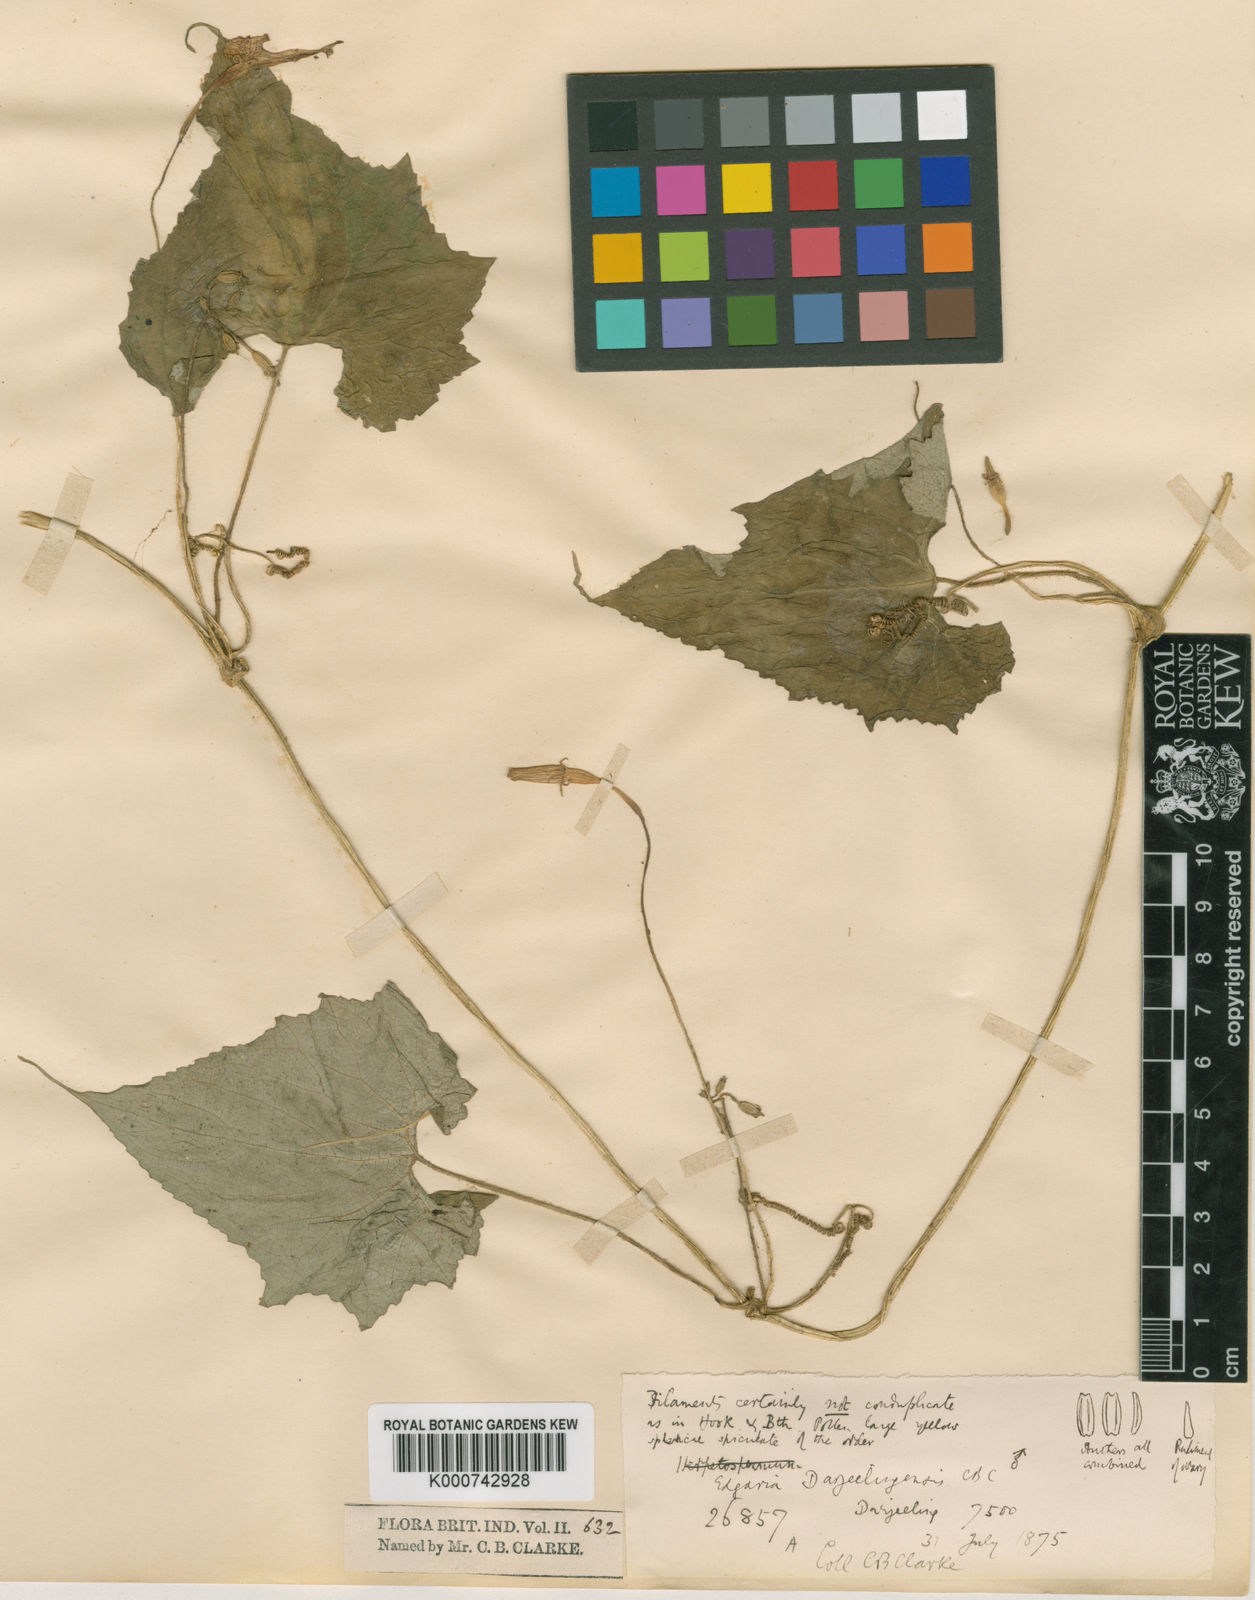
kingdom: Plantae
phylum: Tracheophyta
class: Magnoliopsida
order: Cucurbitales
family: Cucurbitaceae
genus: Herpetospermum
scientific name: Herpetospermum darjeelingense
